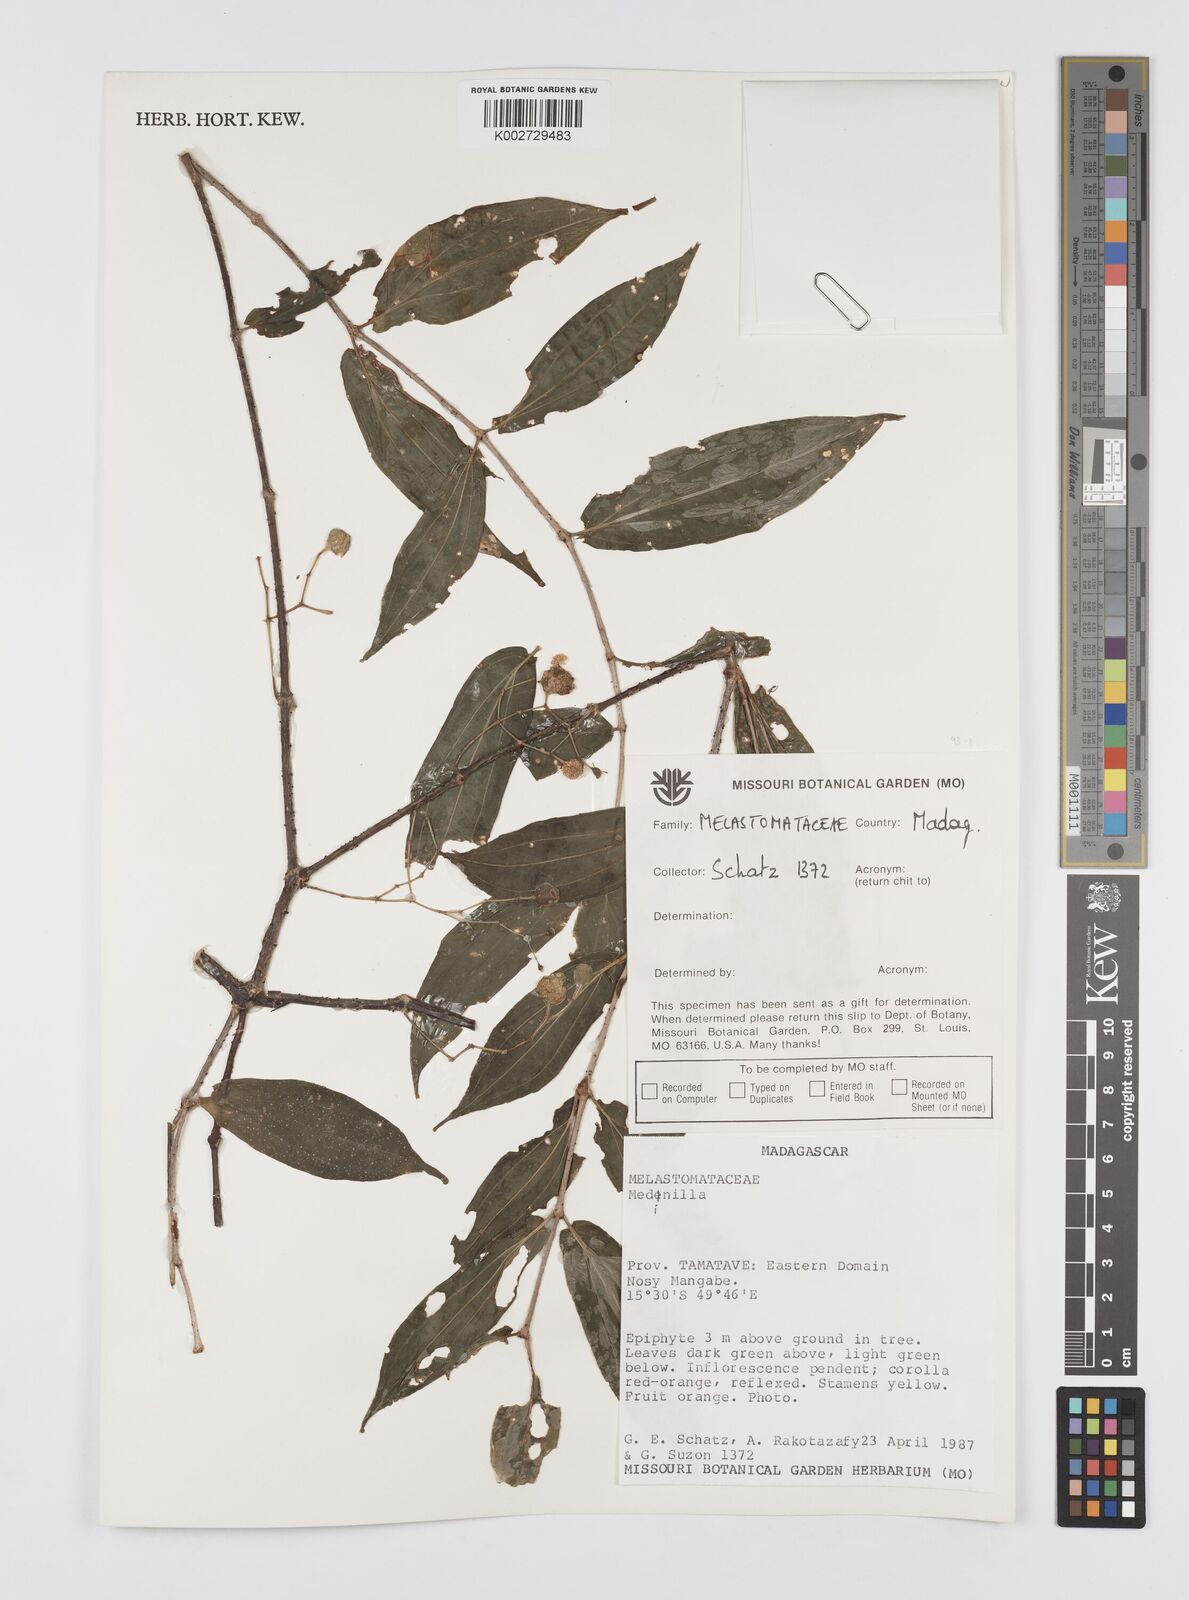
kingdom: Plantae
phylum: Tracheophyta
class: Magnoliopsida
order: Myrtales
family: Melastomataceae
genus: Medinilla
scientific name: Medinilla
